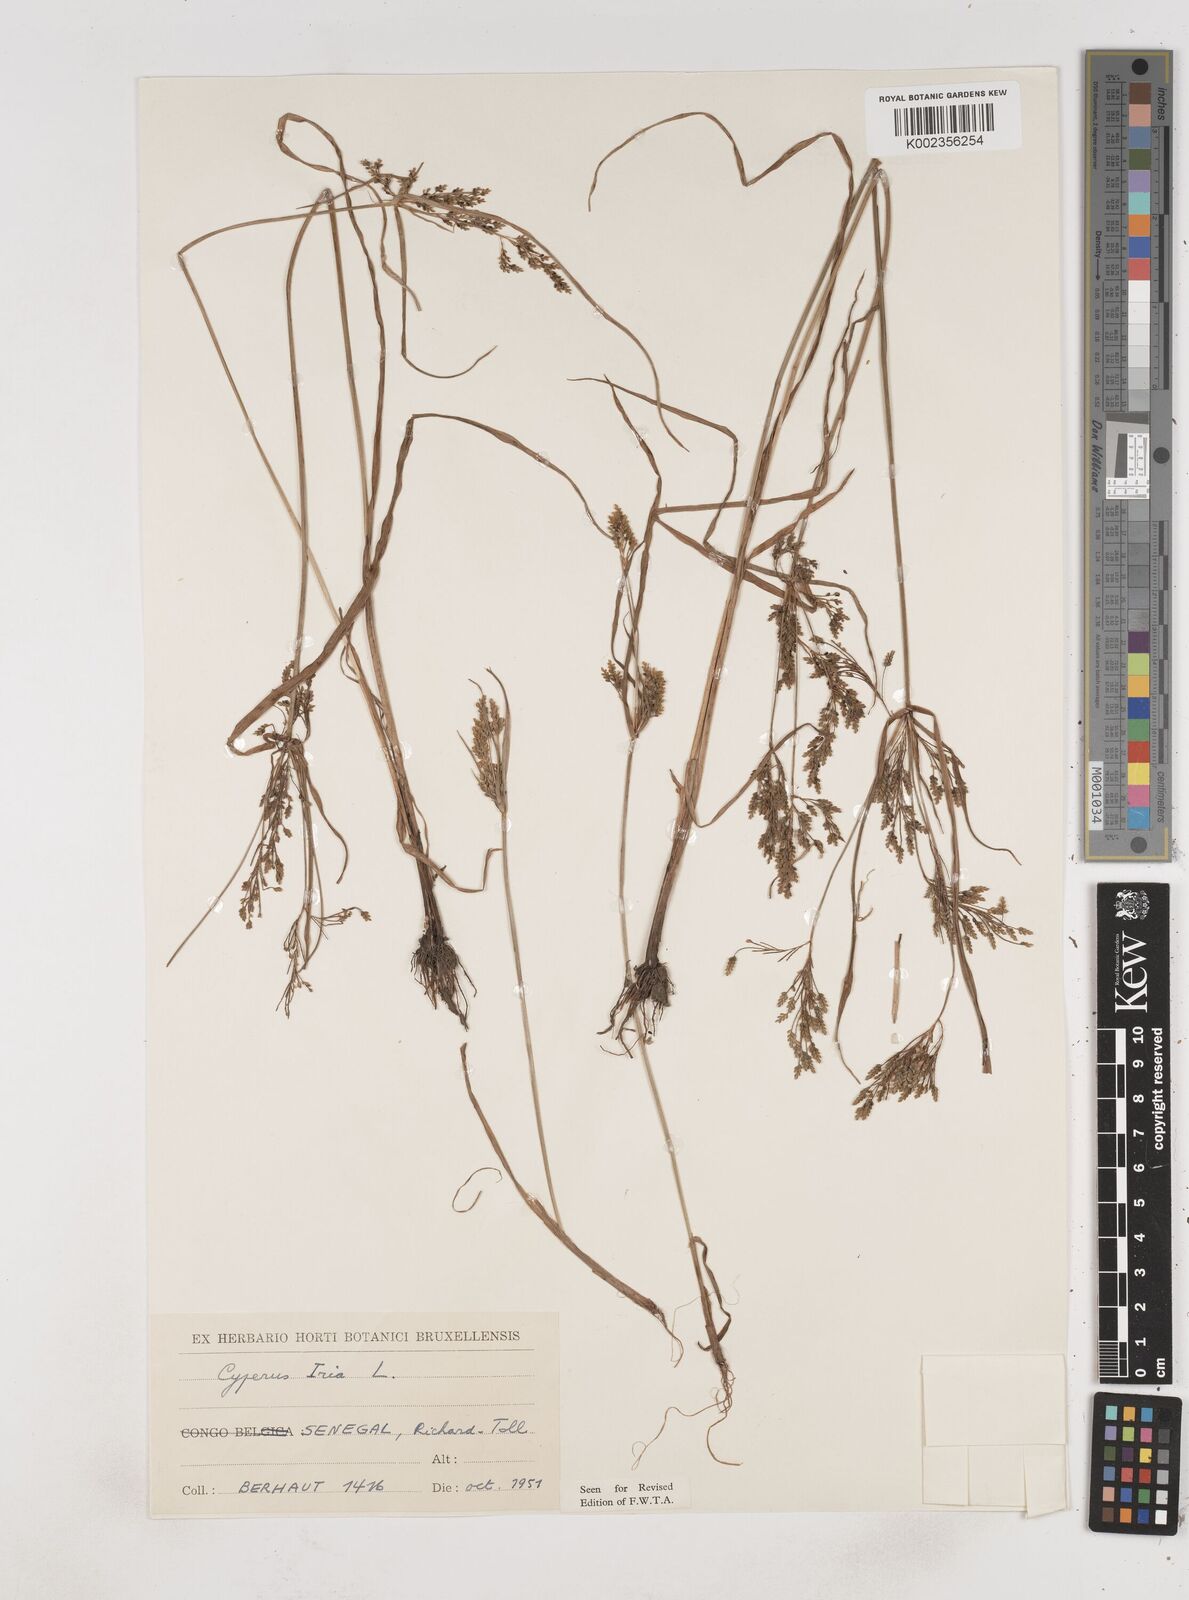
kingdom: Plantae
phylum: Tracheophyta
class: Liliopsida
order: Poales
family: Cyperaceae
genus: Cyperus
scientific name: Cyperus iria
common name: Ricefield flatsedge
